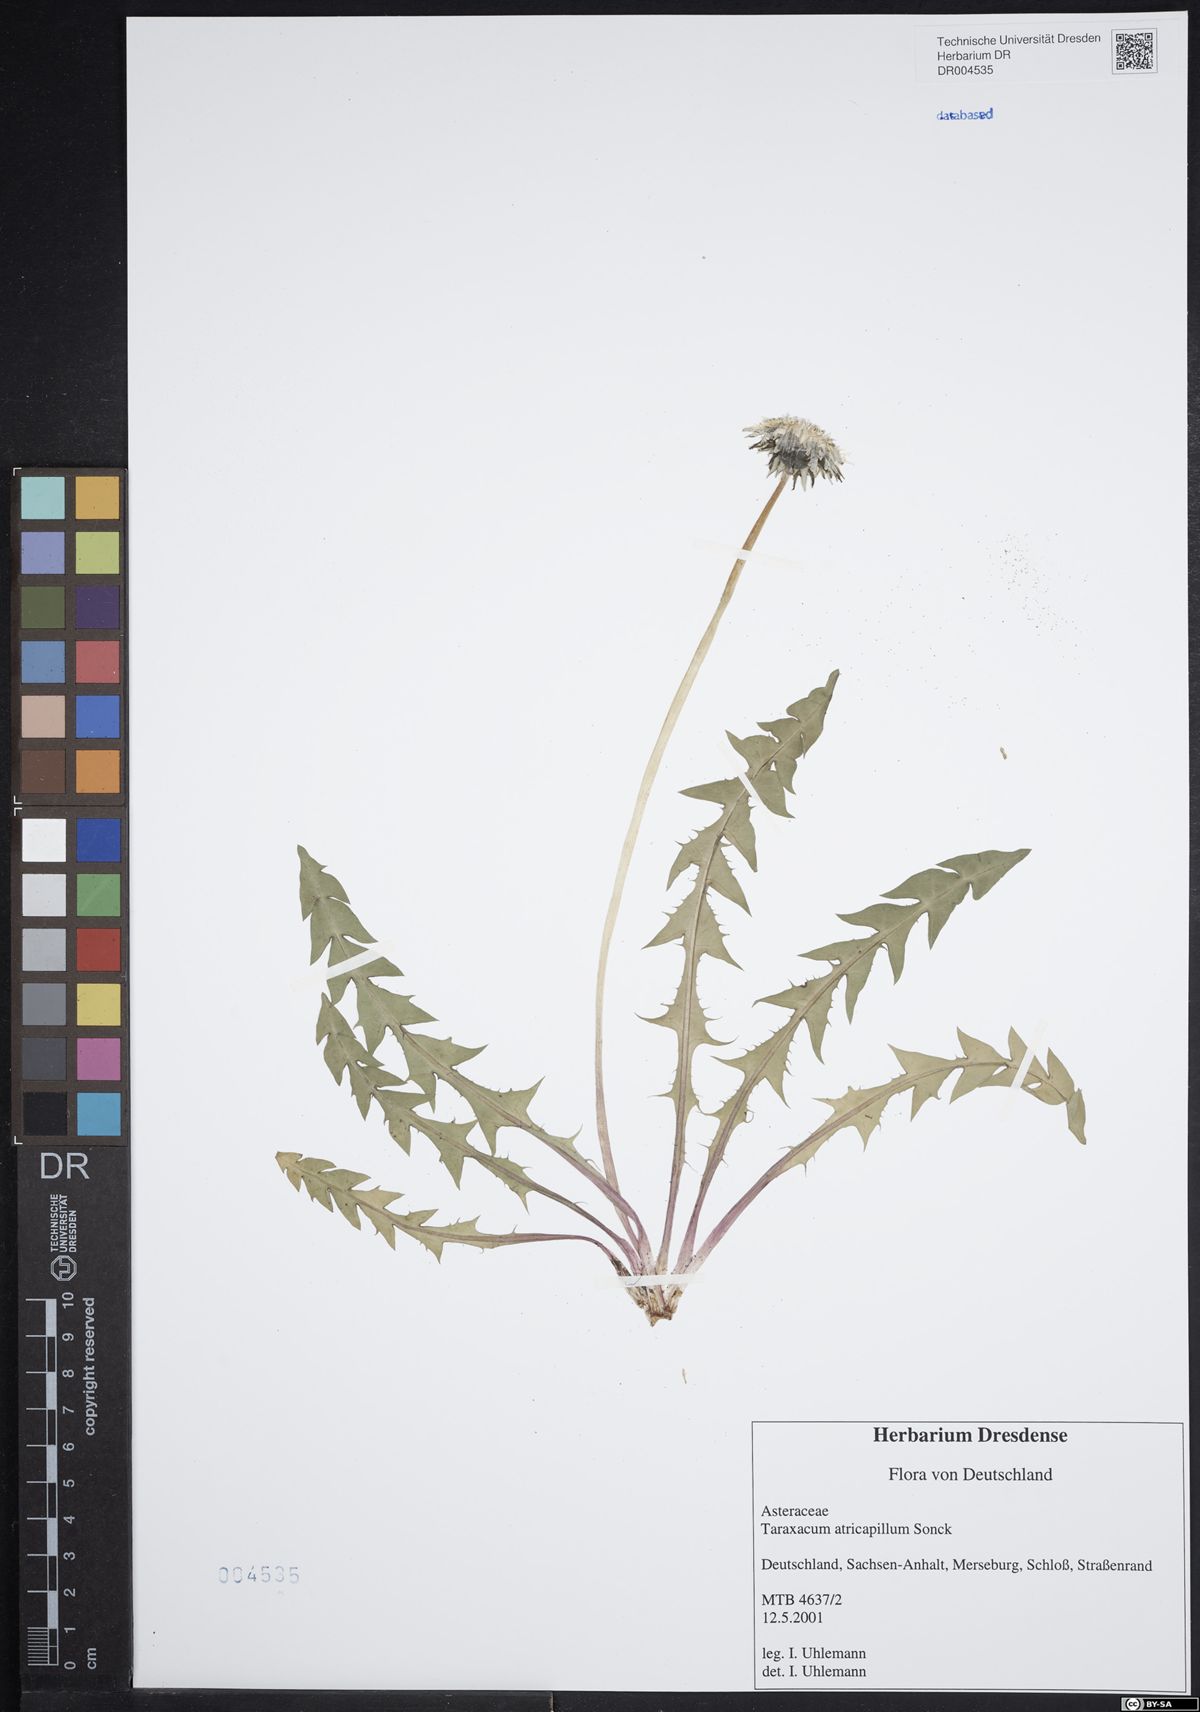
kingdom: Plantae
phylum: Tracheophyta
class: Magnoliopsida
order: Asterales
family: Asteraceae
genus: Taraxacum
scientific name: Taraxacum atricapillum
